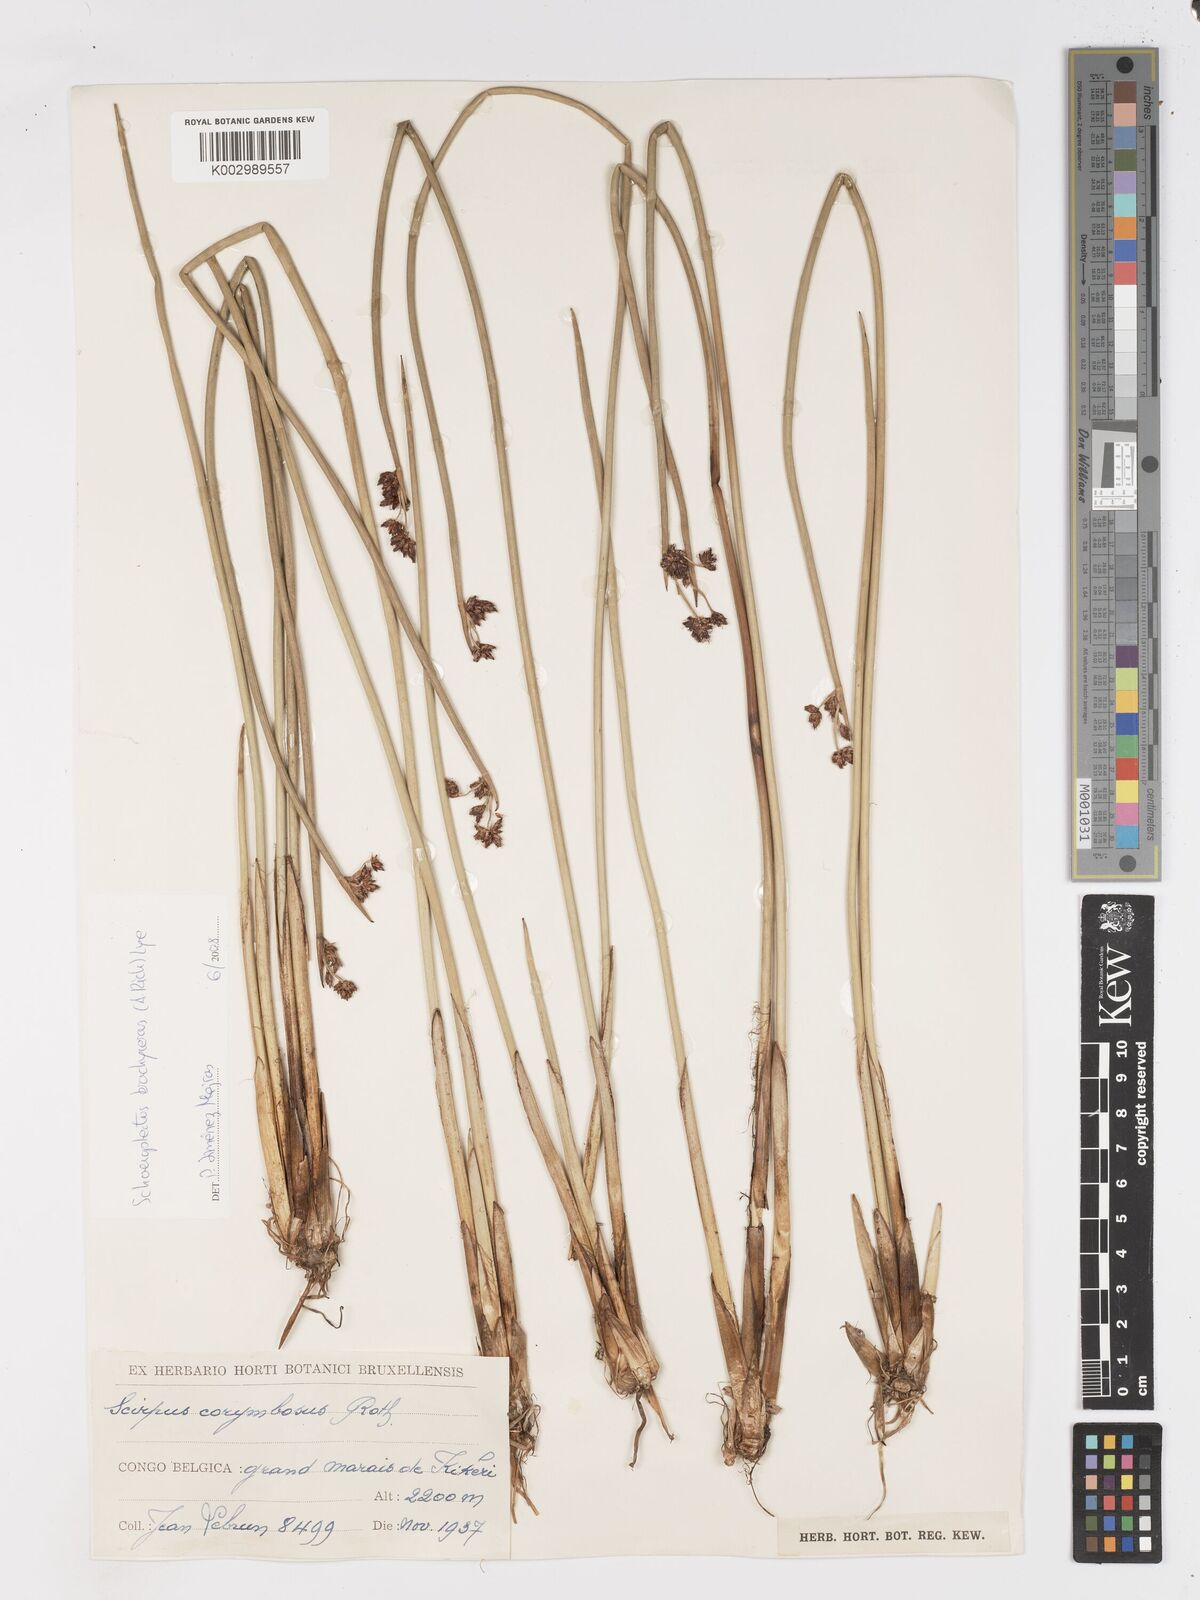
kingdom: Plantae
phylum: Tracheophyta
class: Liliopsida
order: Poales
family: Cyperaceae
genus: Schoenoplectiella
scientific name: Schoenoplectiella corymbosa
